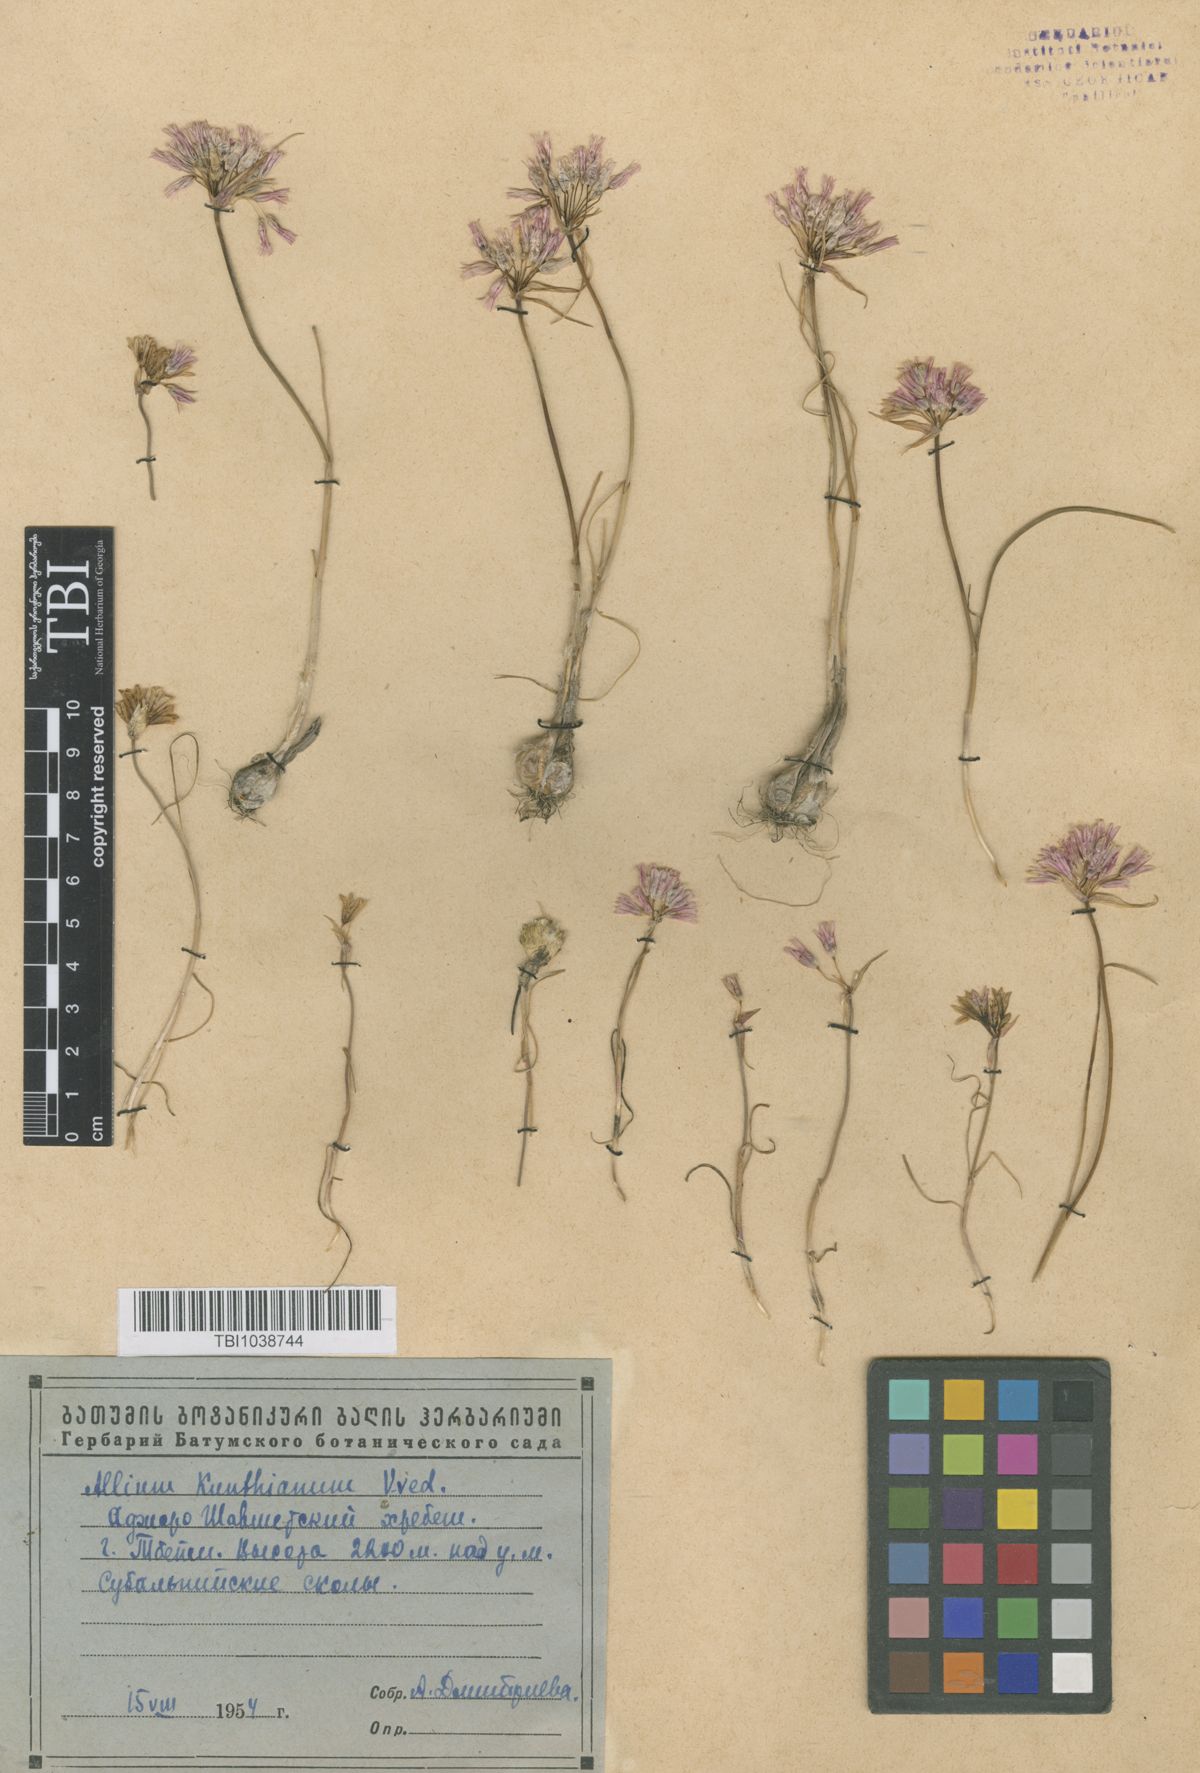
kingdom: Plantae
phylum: Tracheophyta
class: Liliopsida
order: Asparagales
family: Amaryllidaceae
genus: Allium
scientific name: Allium kunthianum
